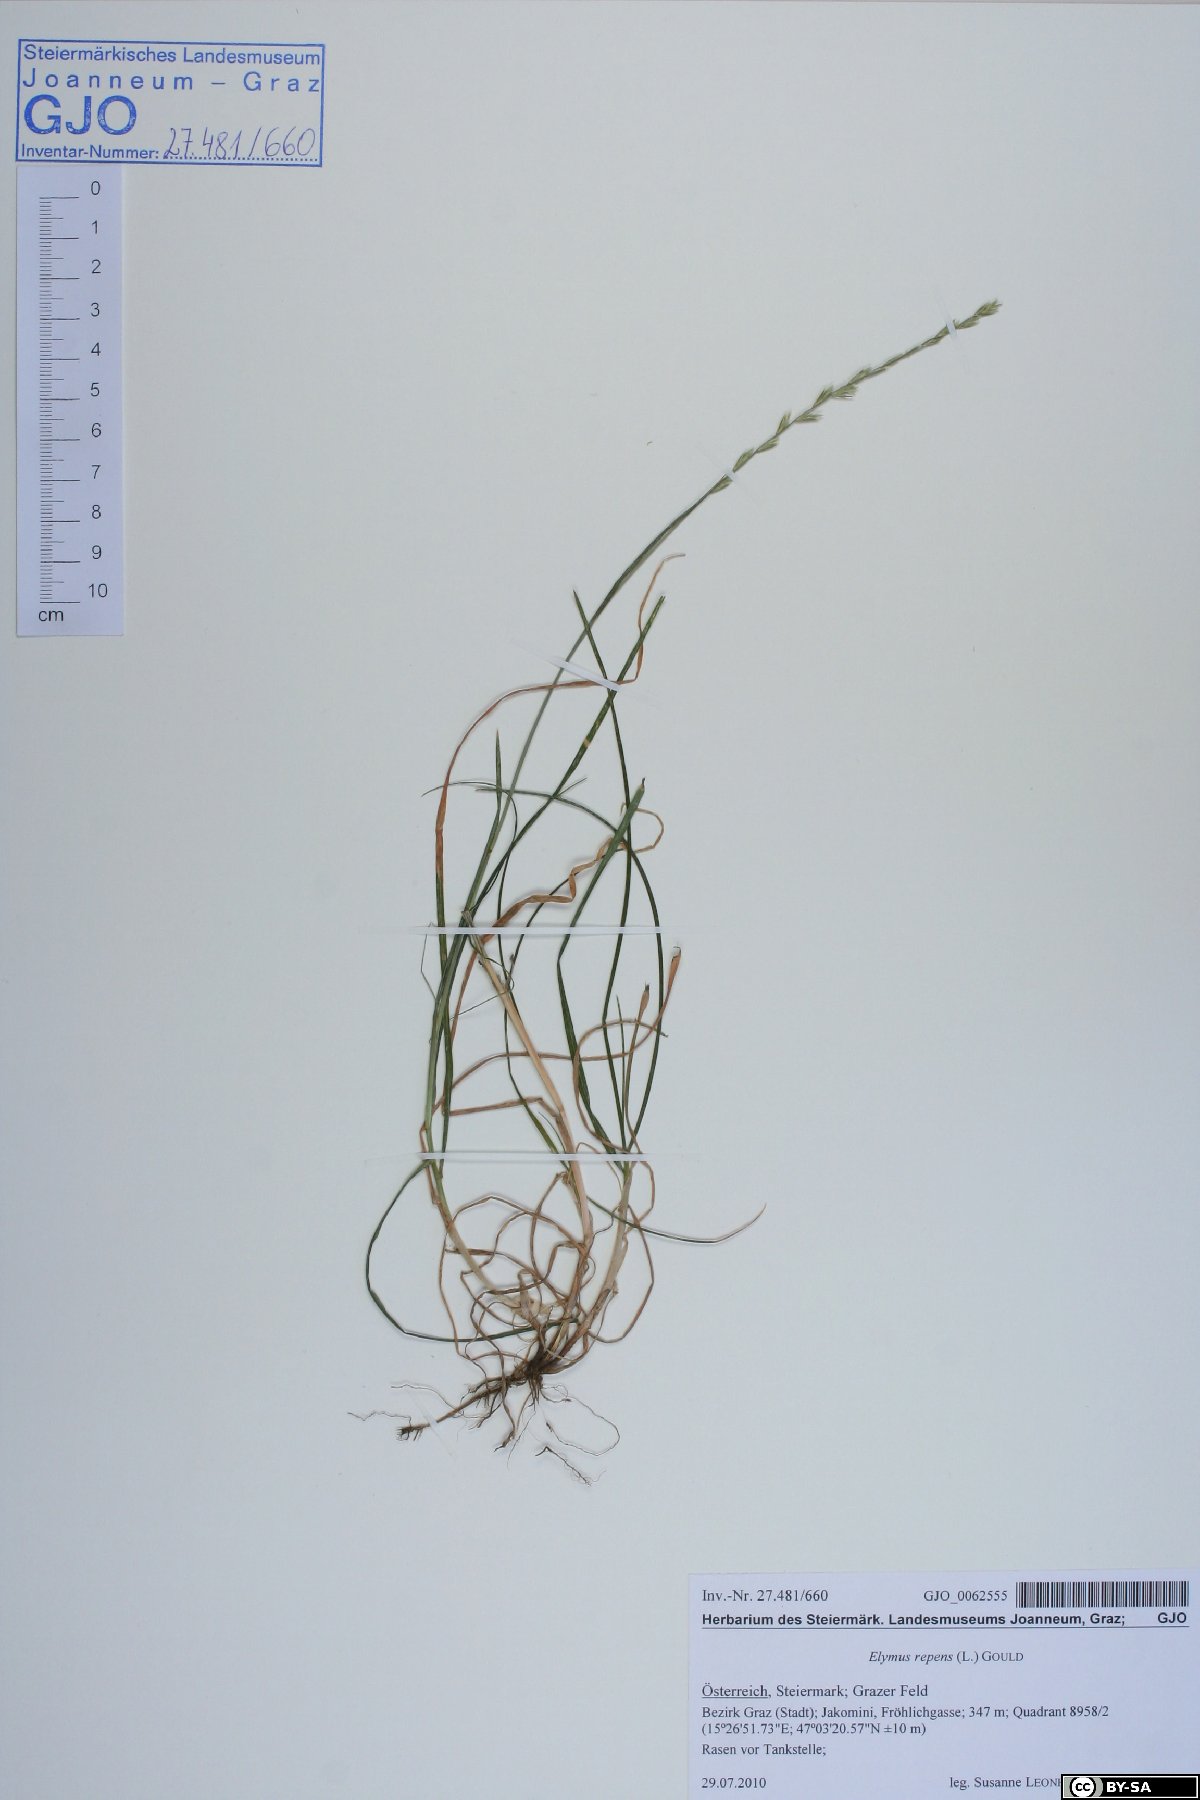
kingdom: Plantae
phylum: Tracheophyta
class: Liliopsida
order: Poales
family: Poaceae
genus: Elymus
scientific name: Elymus repens
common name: Quackgrass
